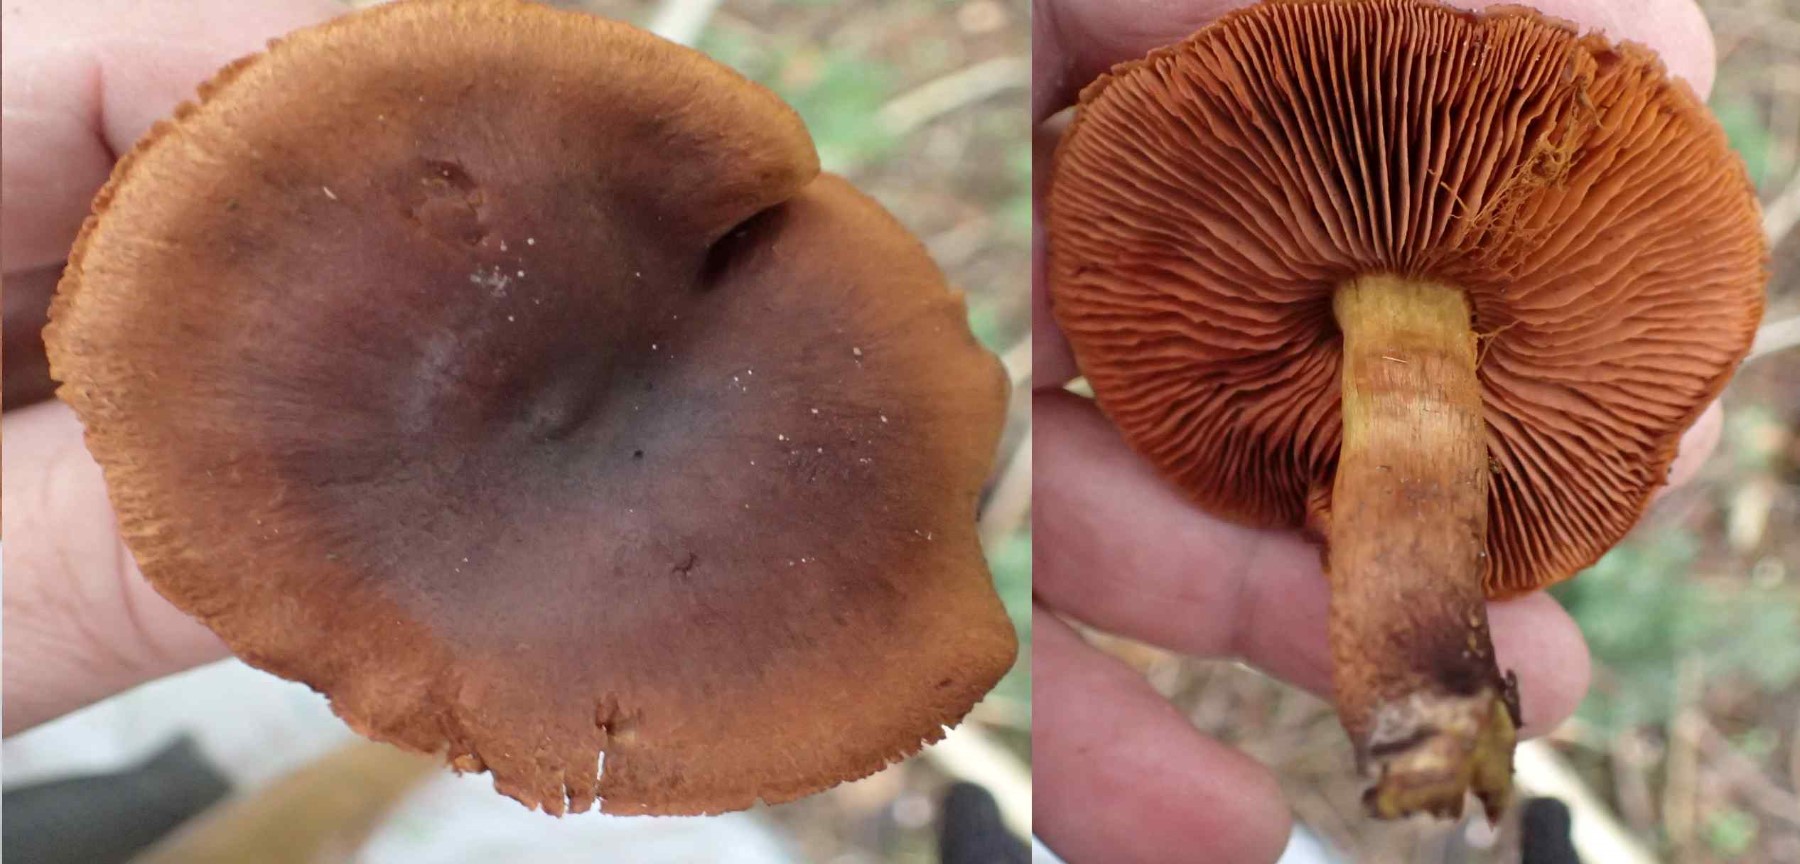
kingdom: Fungi
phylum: Basidiomycota
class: Agaricomycetes
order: Agaricales
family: Cortinariaceae
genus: Cortinarius
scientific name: Cortinarius cinnamomeus
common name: kanel-slørhat
